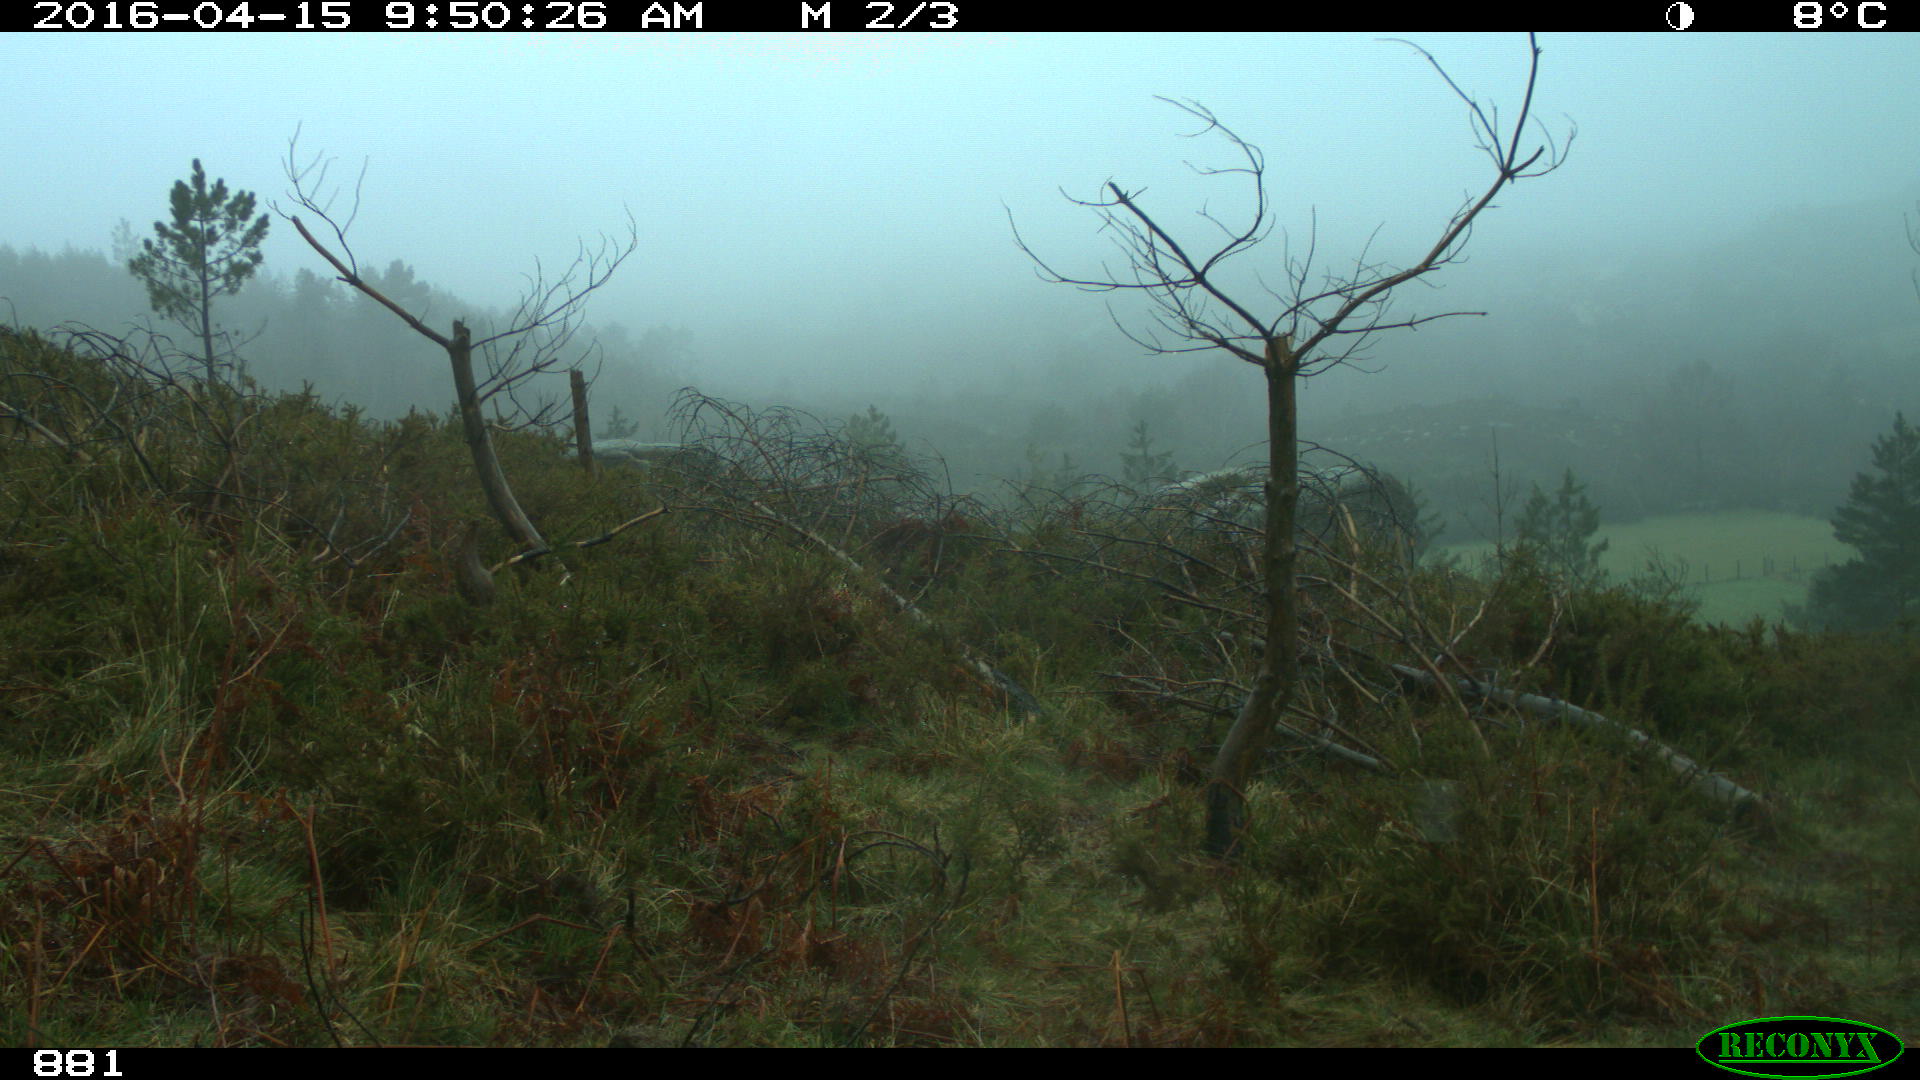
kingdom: Animalia
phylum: Chordata
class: Mammalia
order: Perissodactyla
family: Equidae
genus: Equus
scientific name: Equus caballus
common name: Horse
